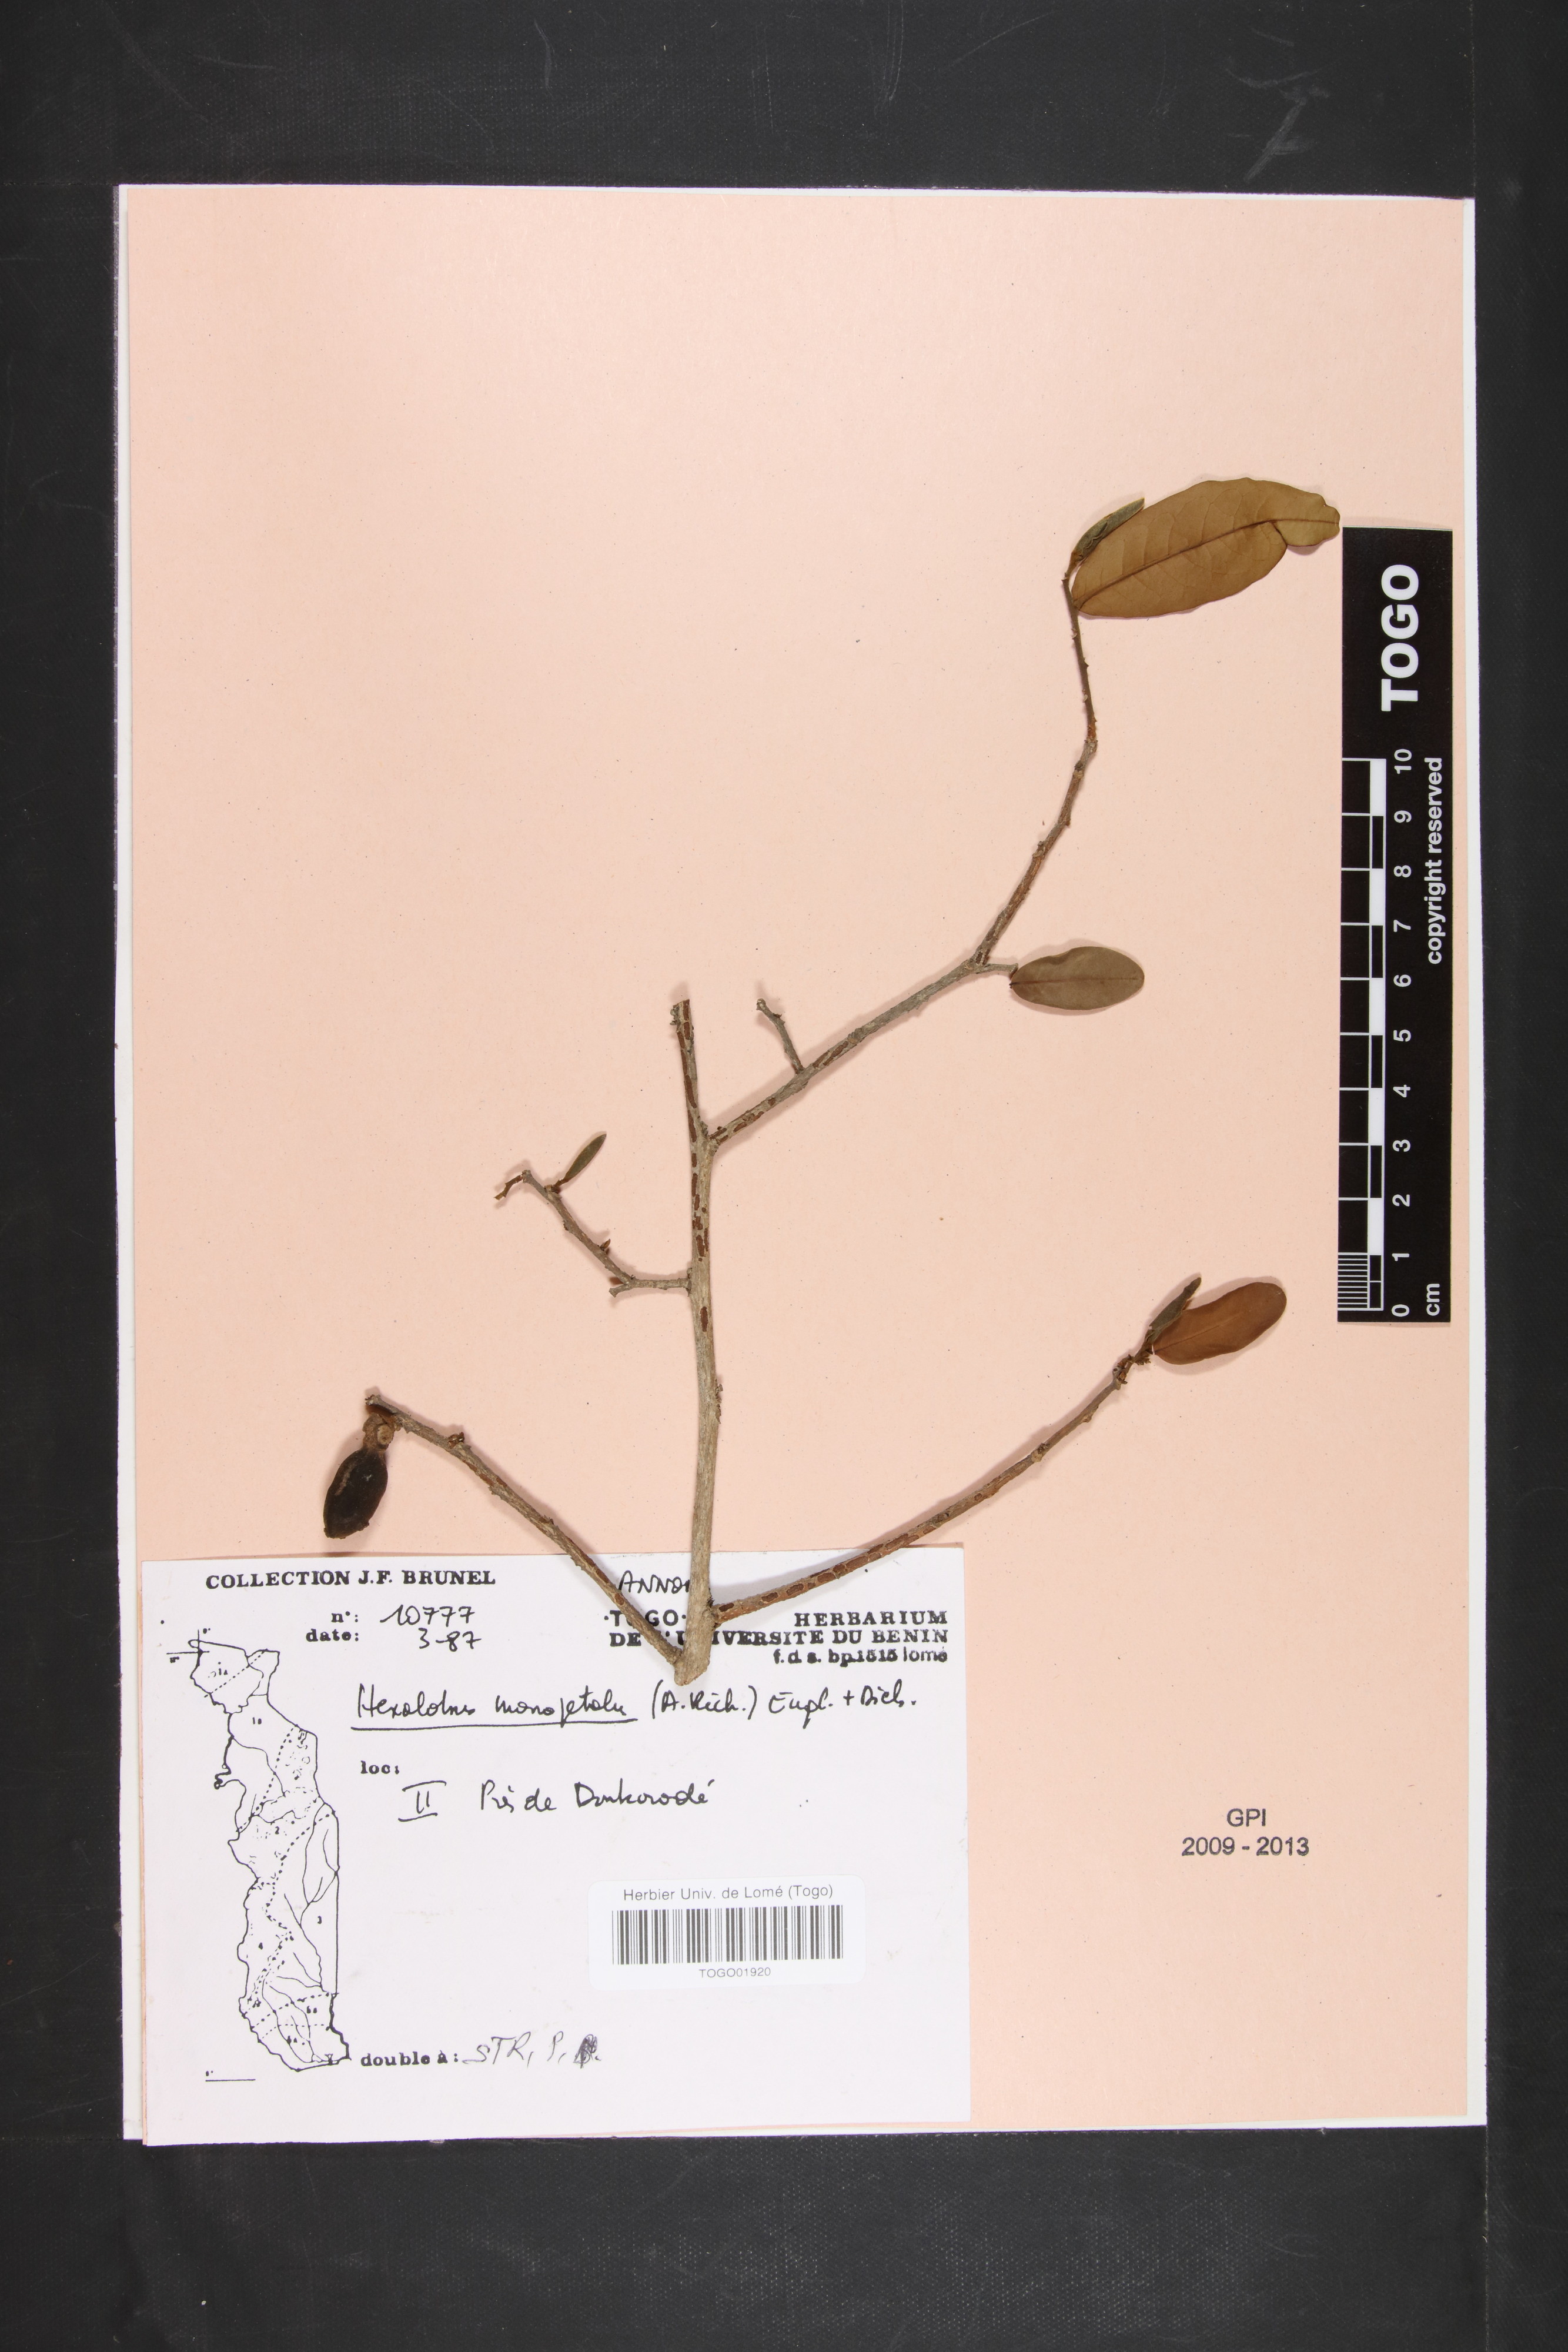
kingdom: Plantae
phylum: Tracheophyta
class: Magnoliopsida
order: Magnoliales
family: Annonaceae
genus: Hexalobus
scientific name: Hexalobus monopetalus
